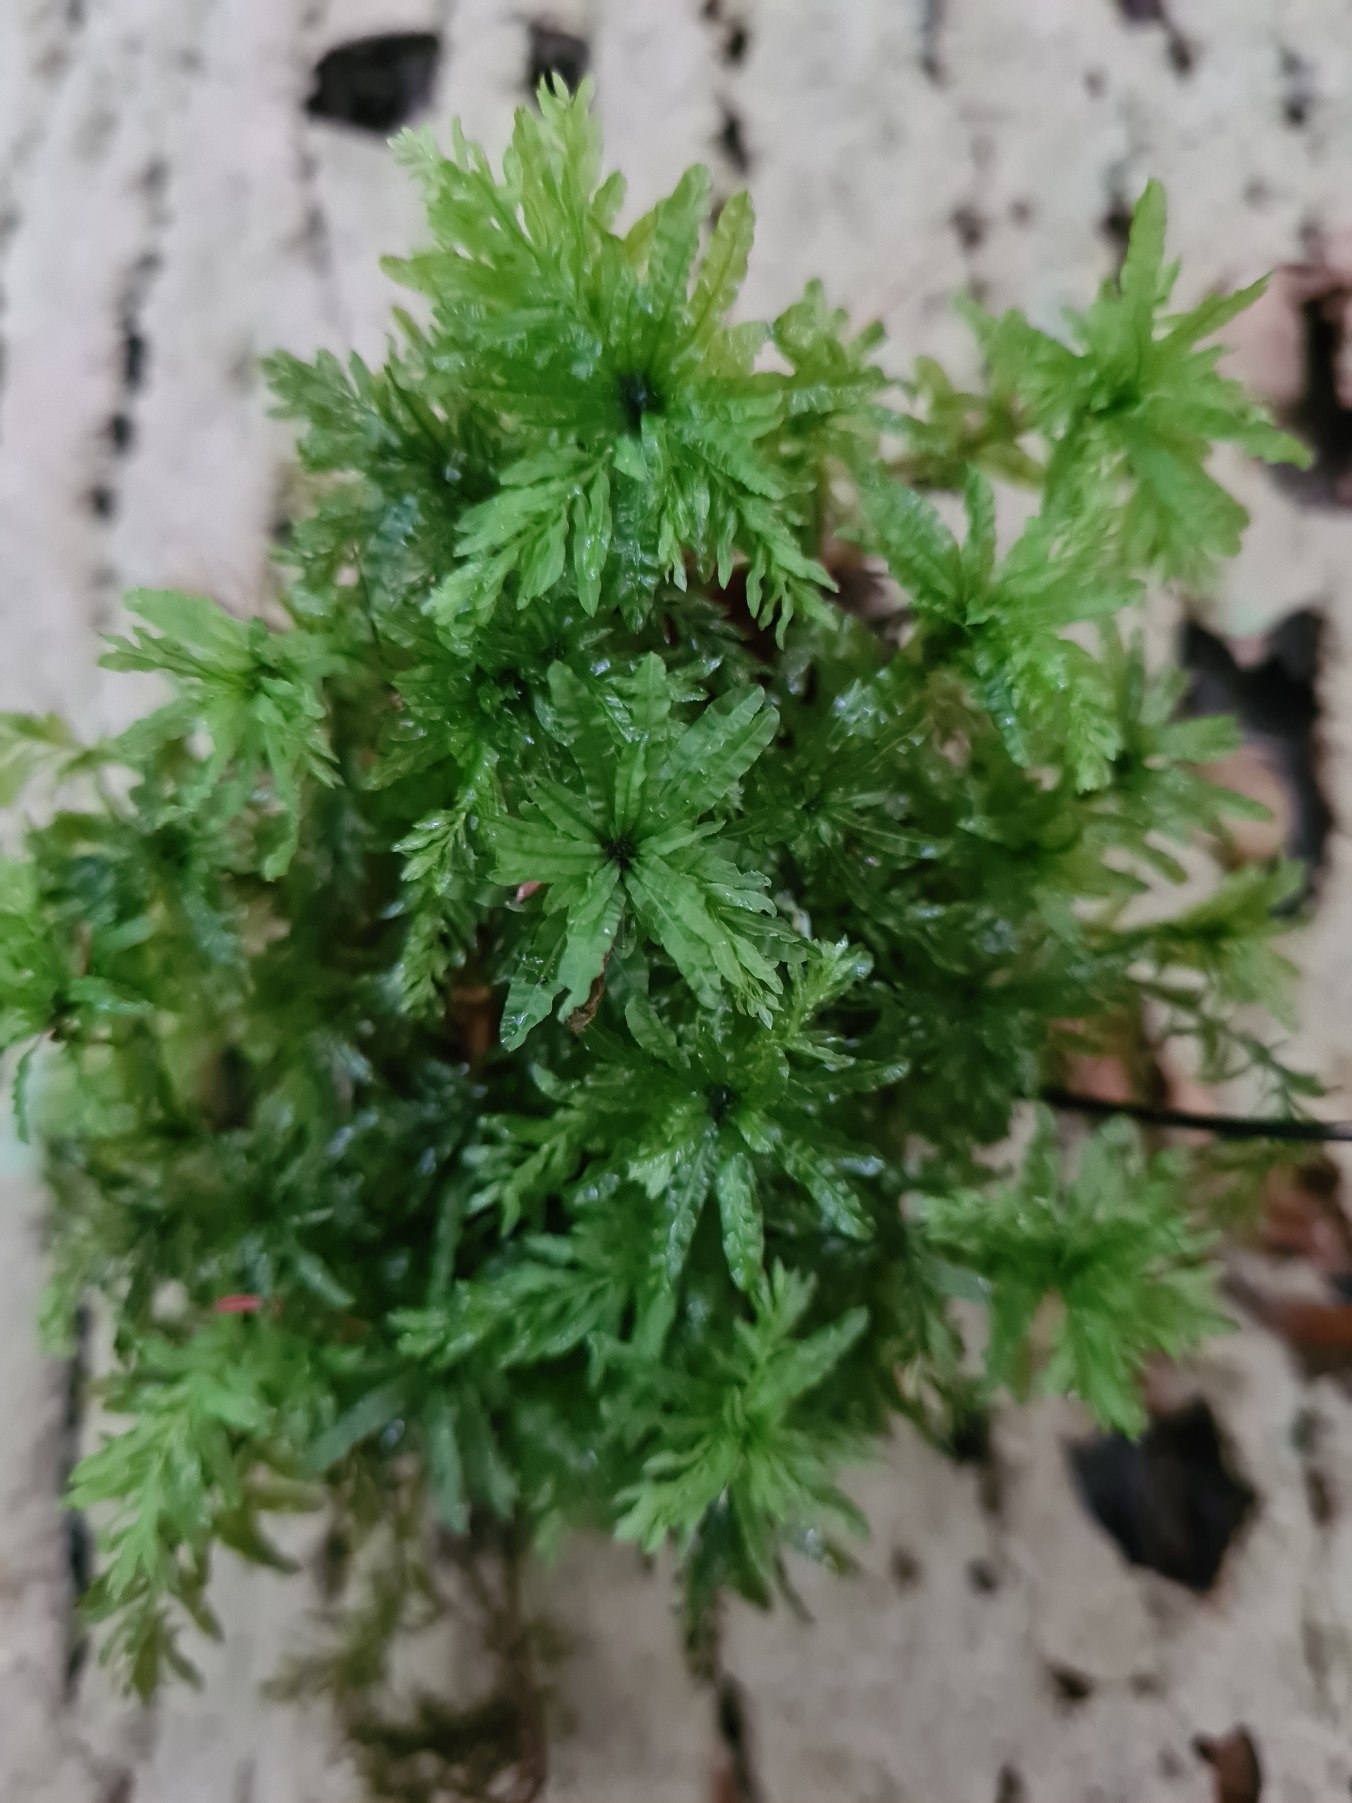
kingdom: Plantae
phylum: Bryophyta
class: Bryopsida
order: Bryales
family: Mniaceae
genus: Plagiomnium
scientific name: Plagiomnium undulatum
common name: Bølget krybstjerne
